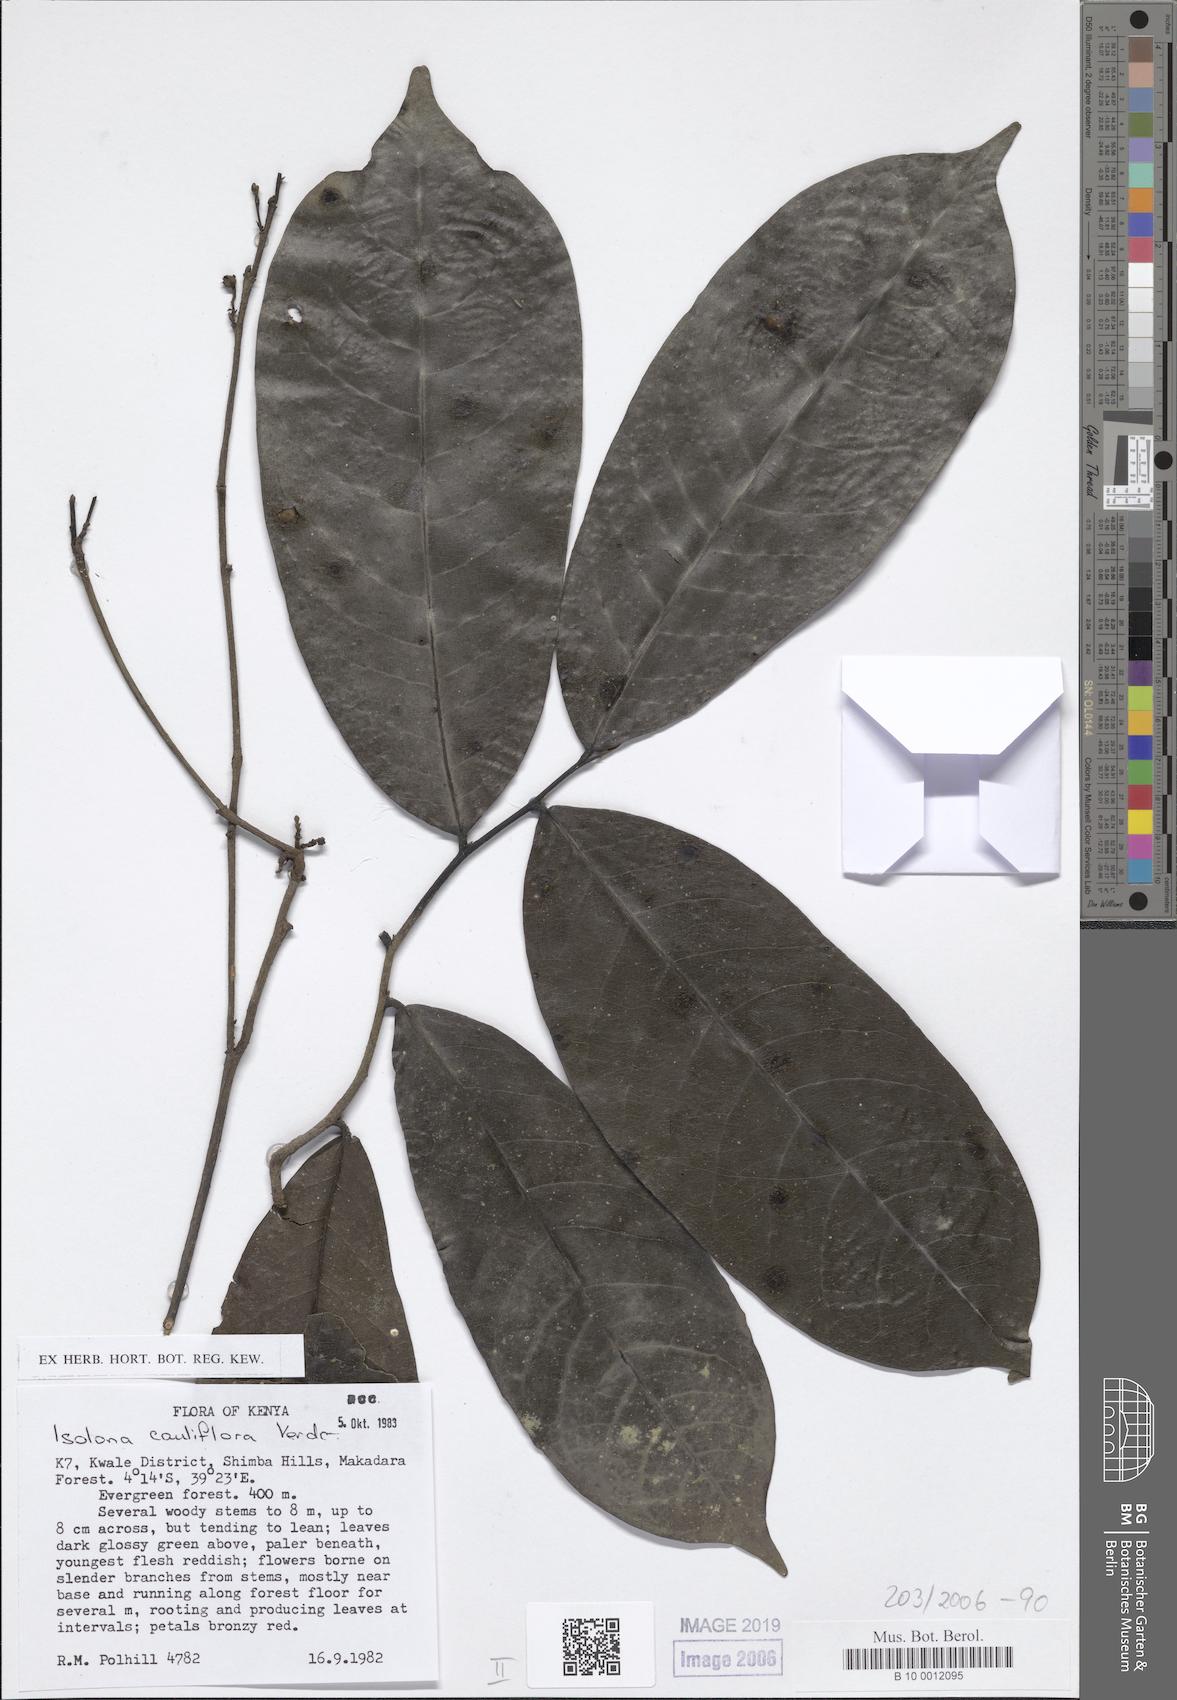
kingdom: Plantae
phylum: Tracheophyta
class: Magnoliopsida
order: Magnoliales
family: Annonaceae
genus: Isolona
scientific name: Isolona cauliflora
